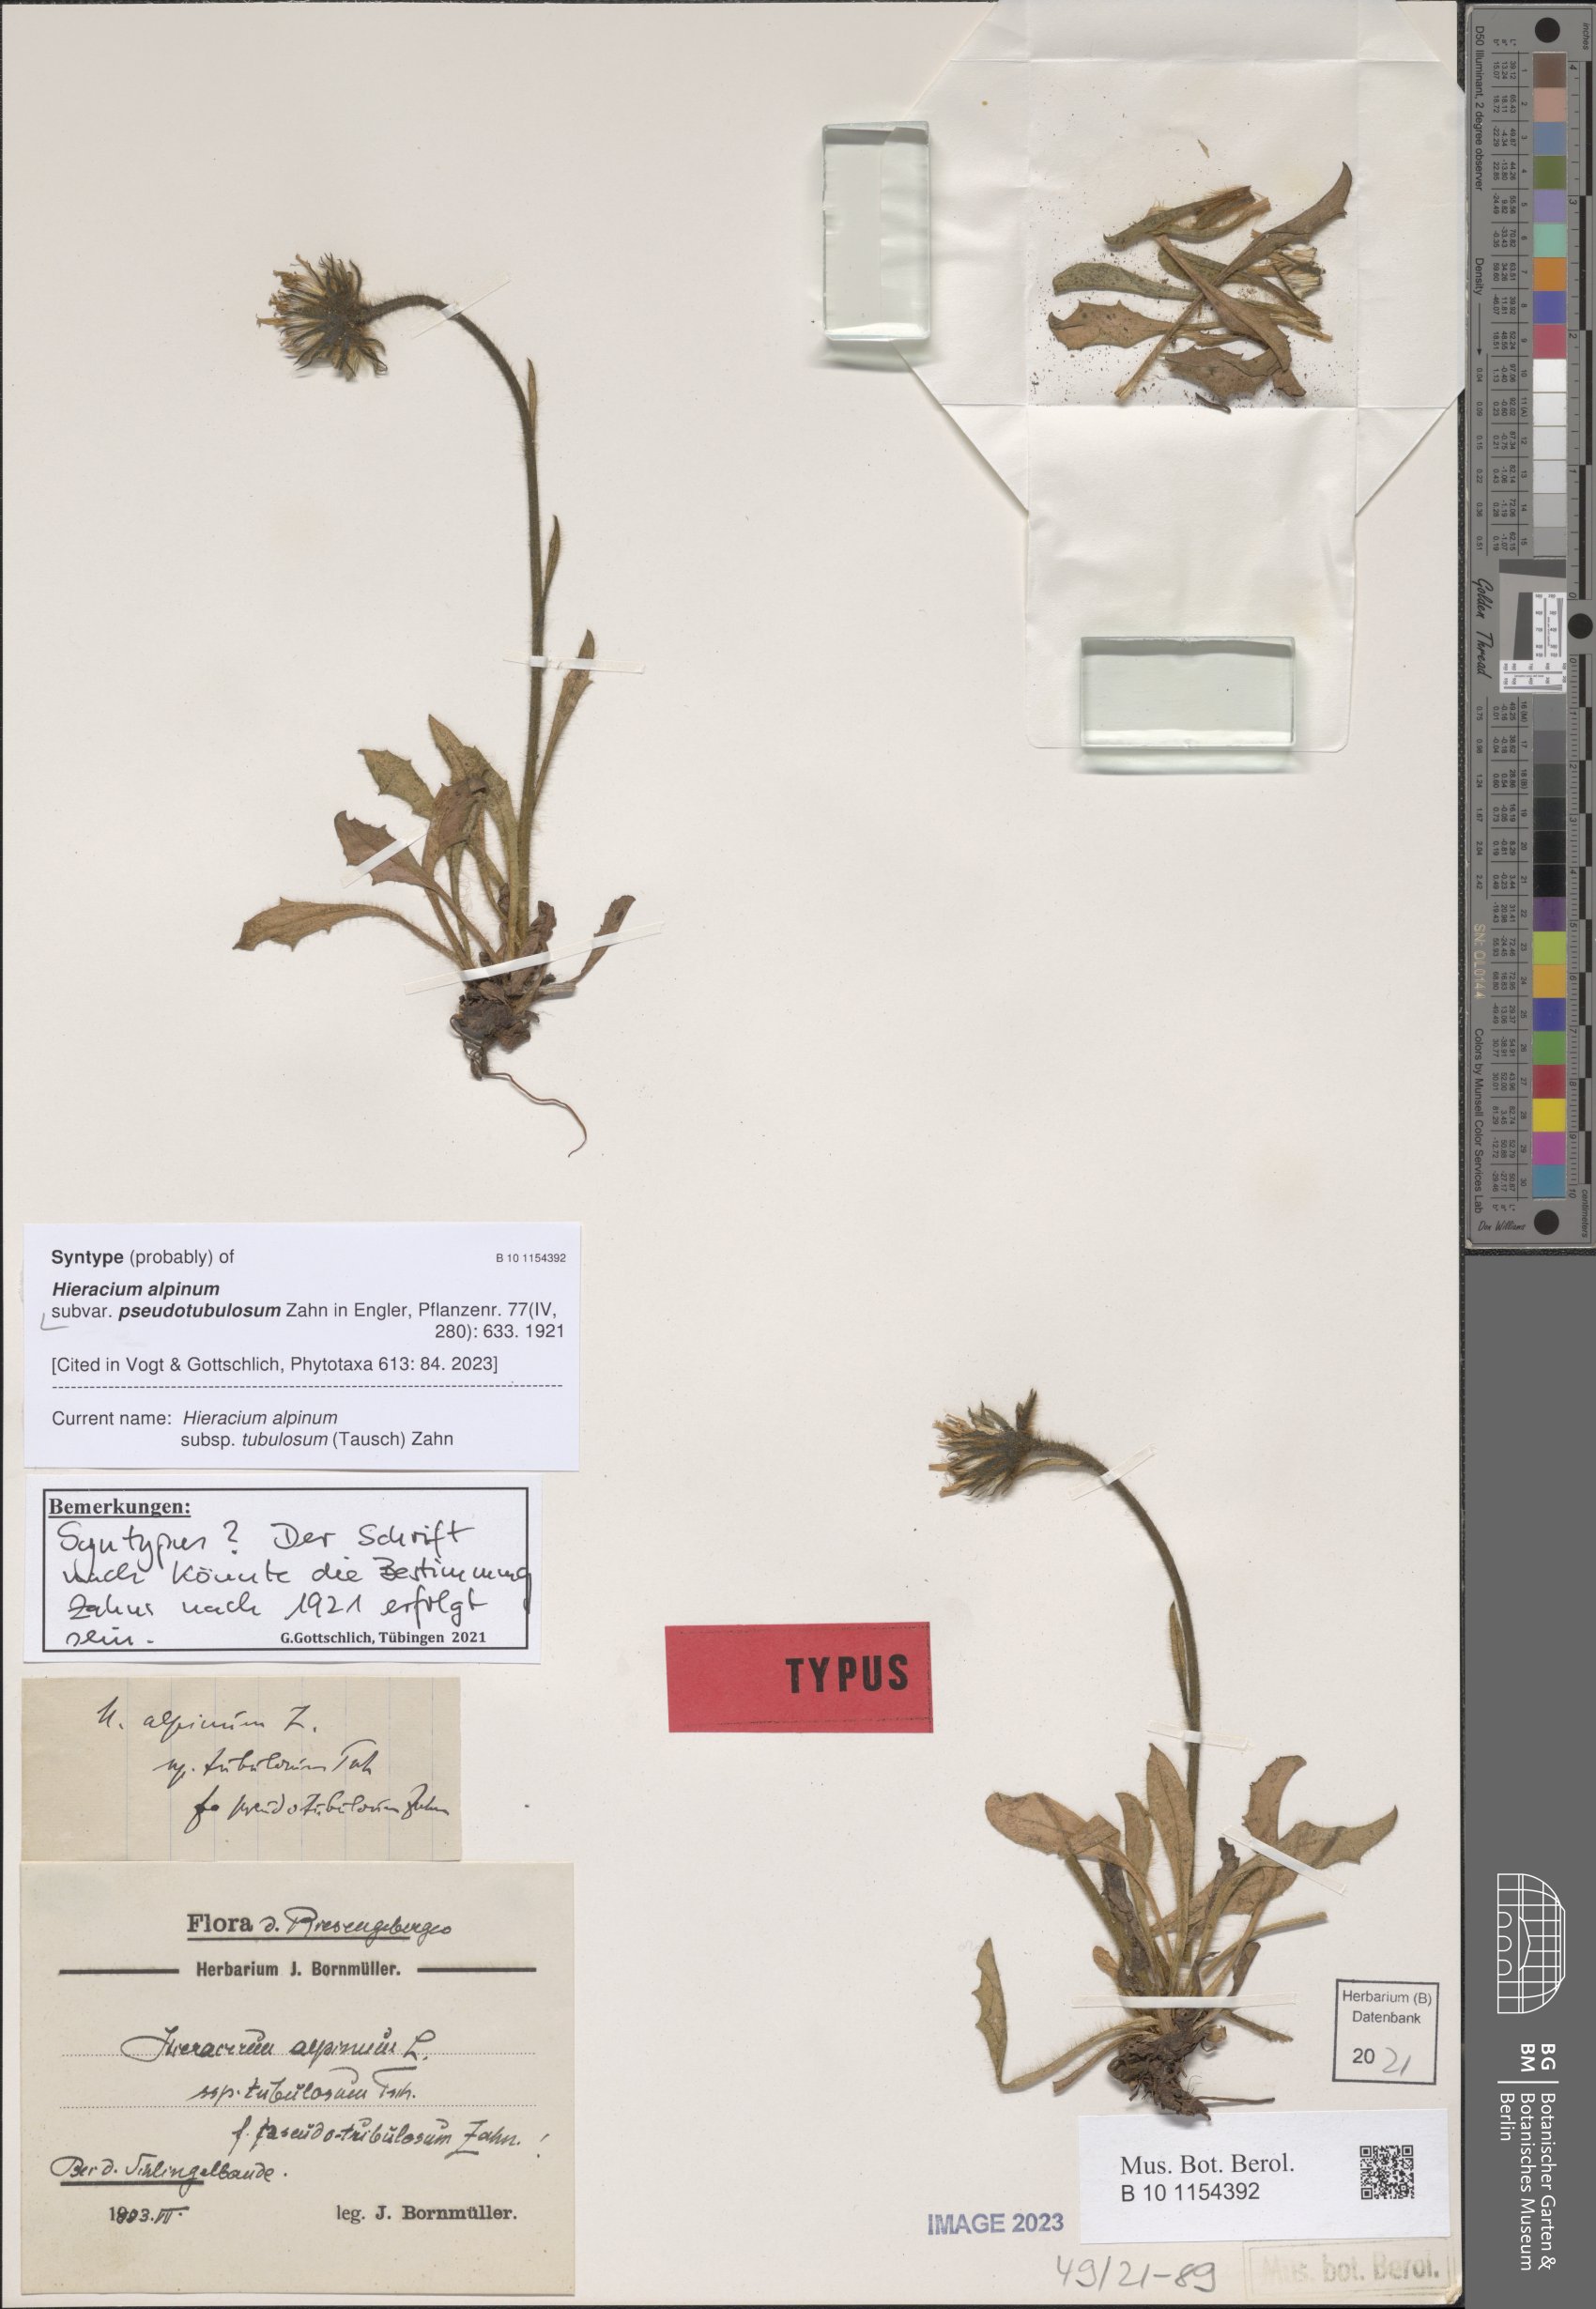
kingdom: Plantae
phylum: Tracheophyta
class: Magnoliopsida
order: Asterales
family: Asteraceae
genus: Hieracium
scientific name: Hieracium alpinum
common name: Alpine hawkweed
